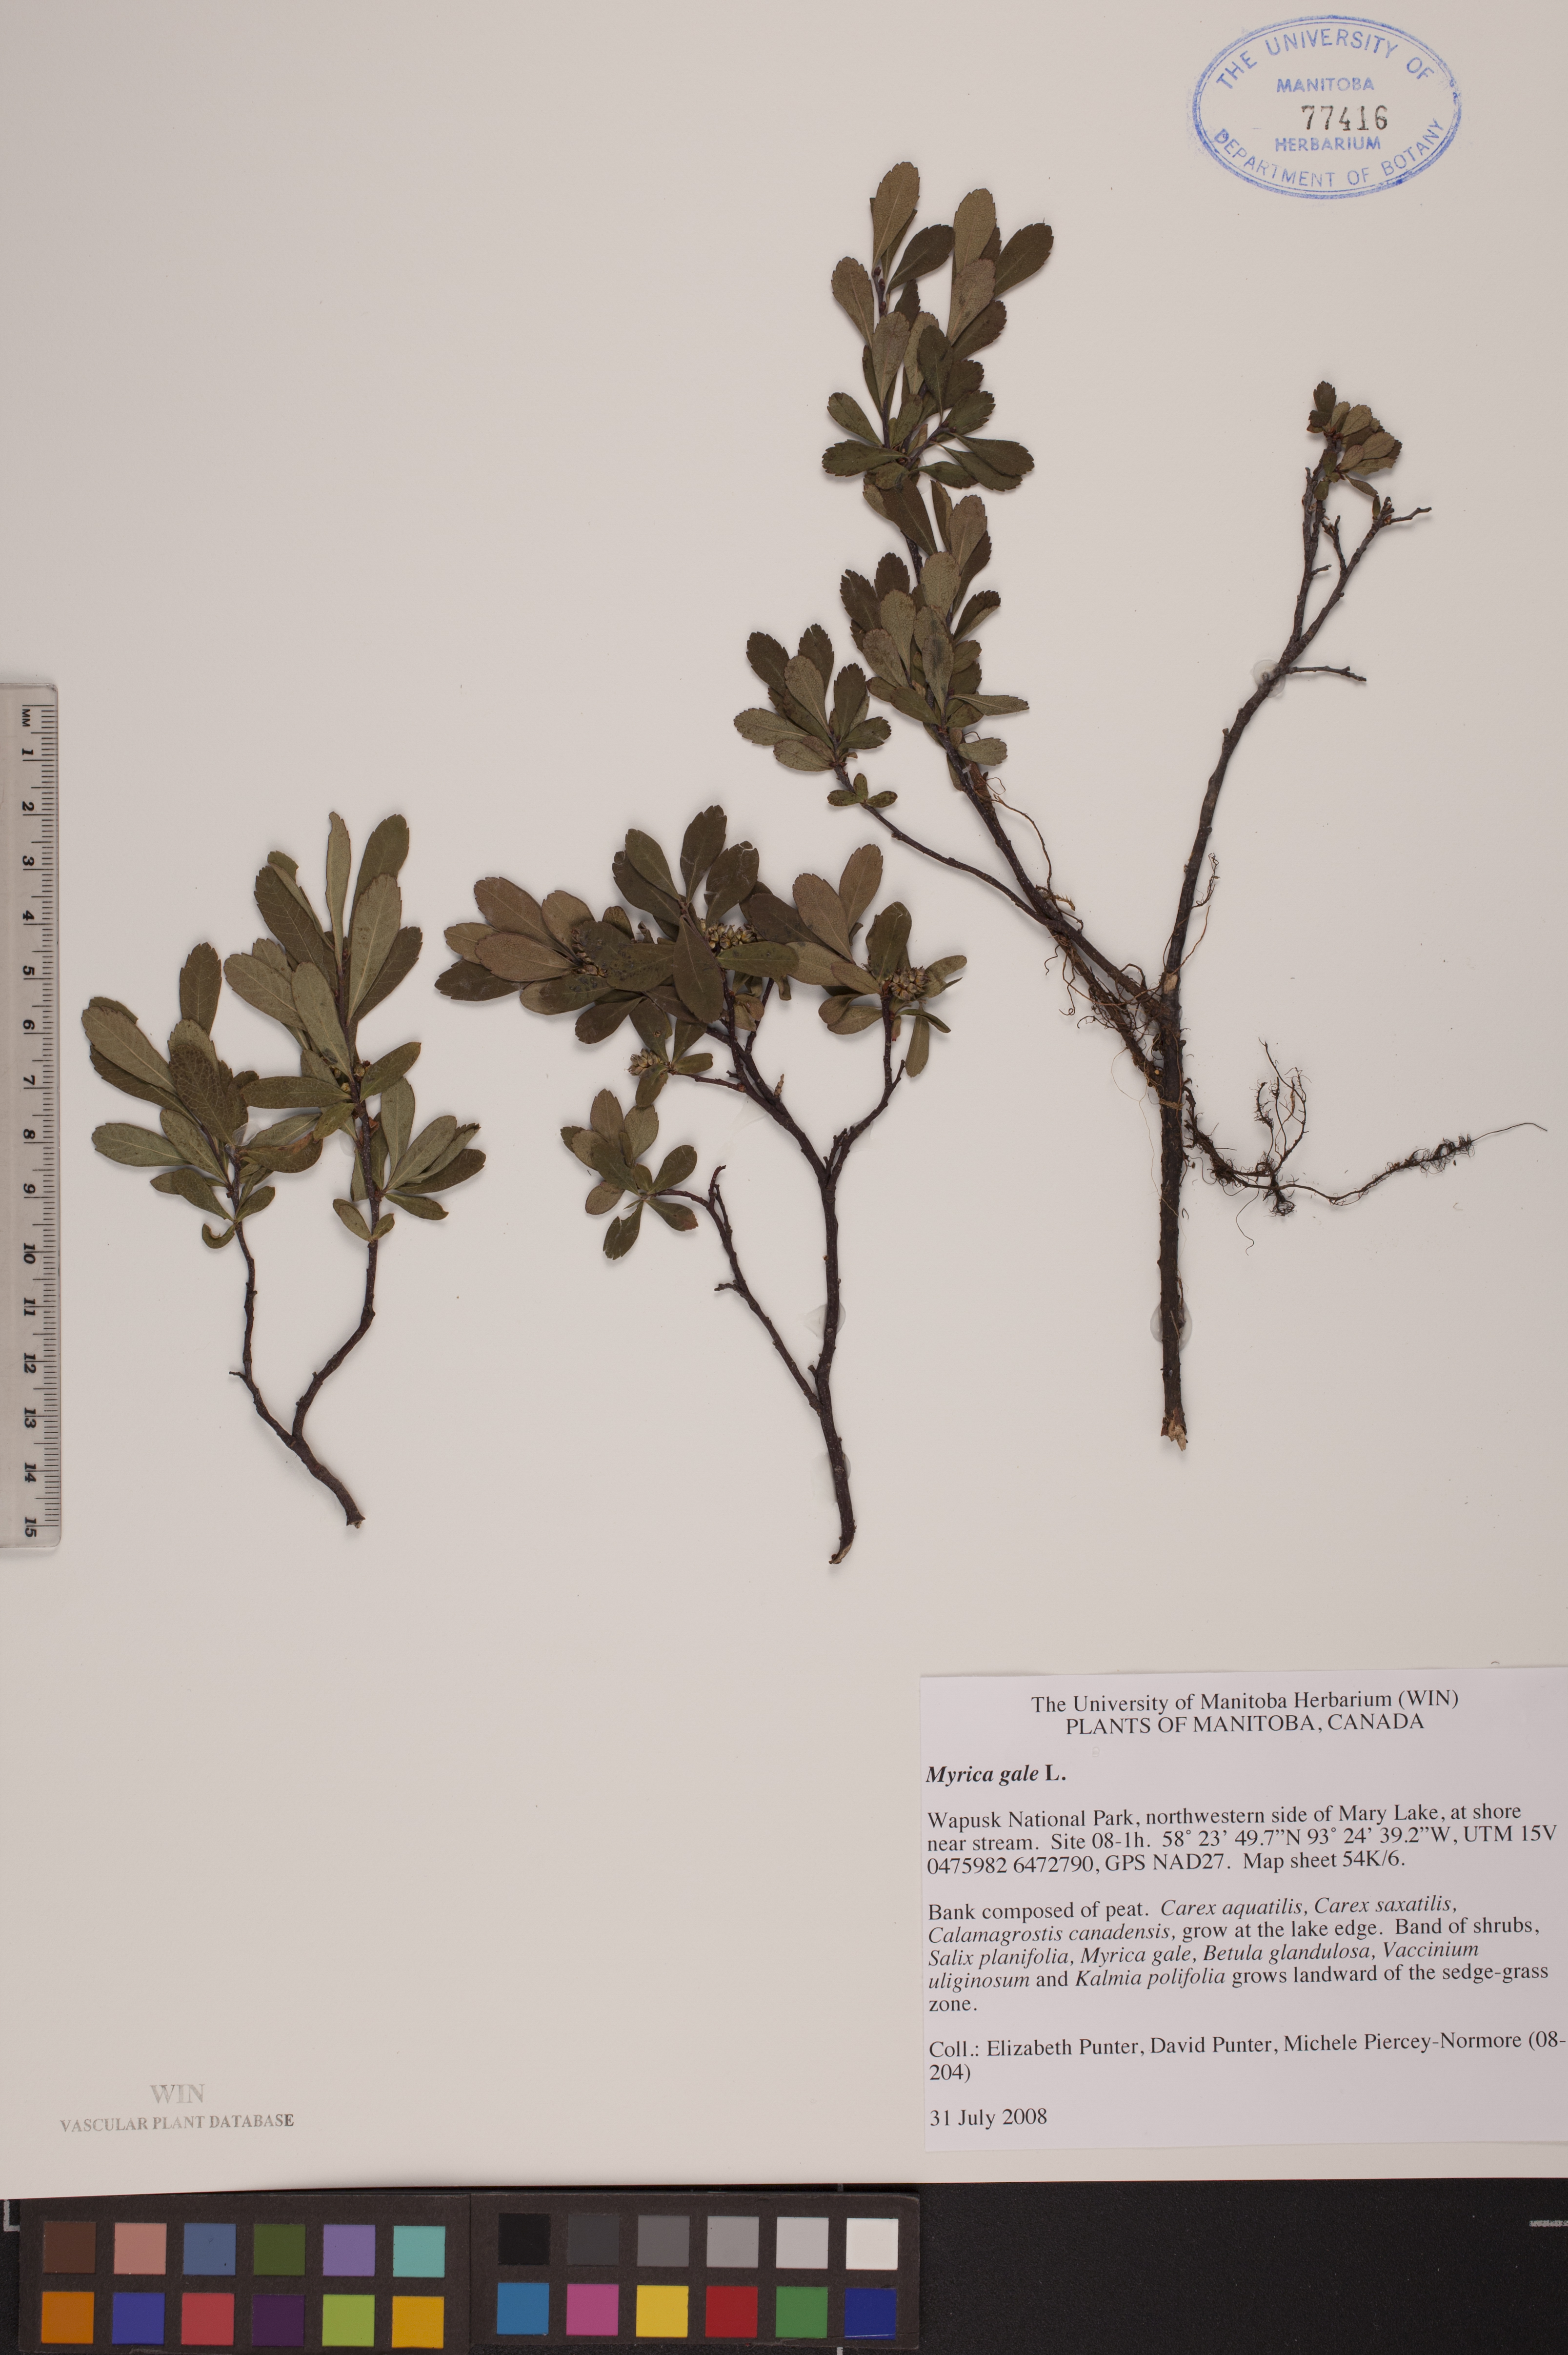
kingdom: Plantae
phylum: Tracheophyta
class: Magnoliopsida
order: Fagales
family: Myricaceae
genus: Myrica
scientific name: Myrica gale
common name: Sweet gale
